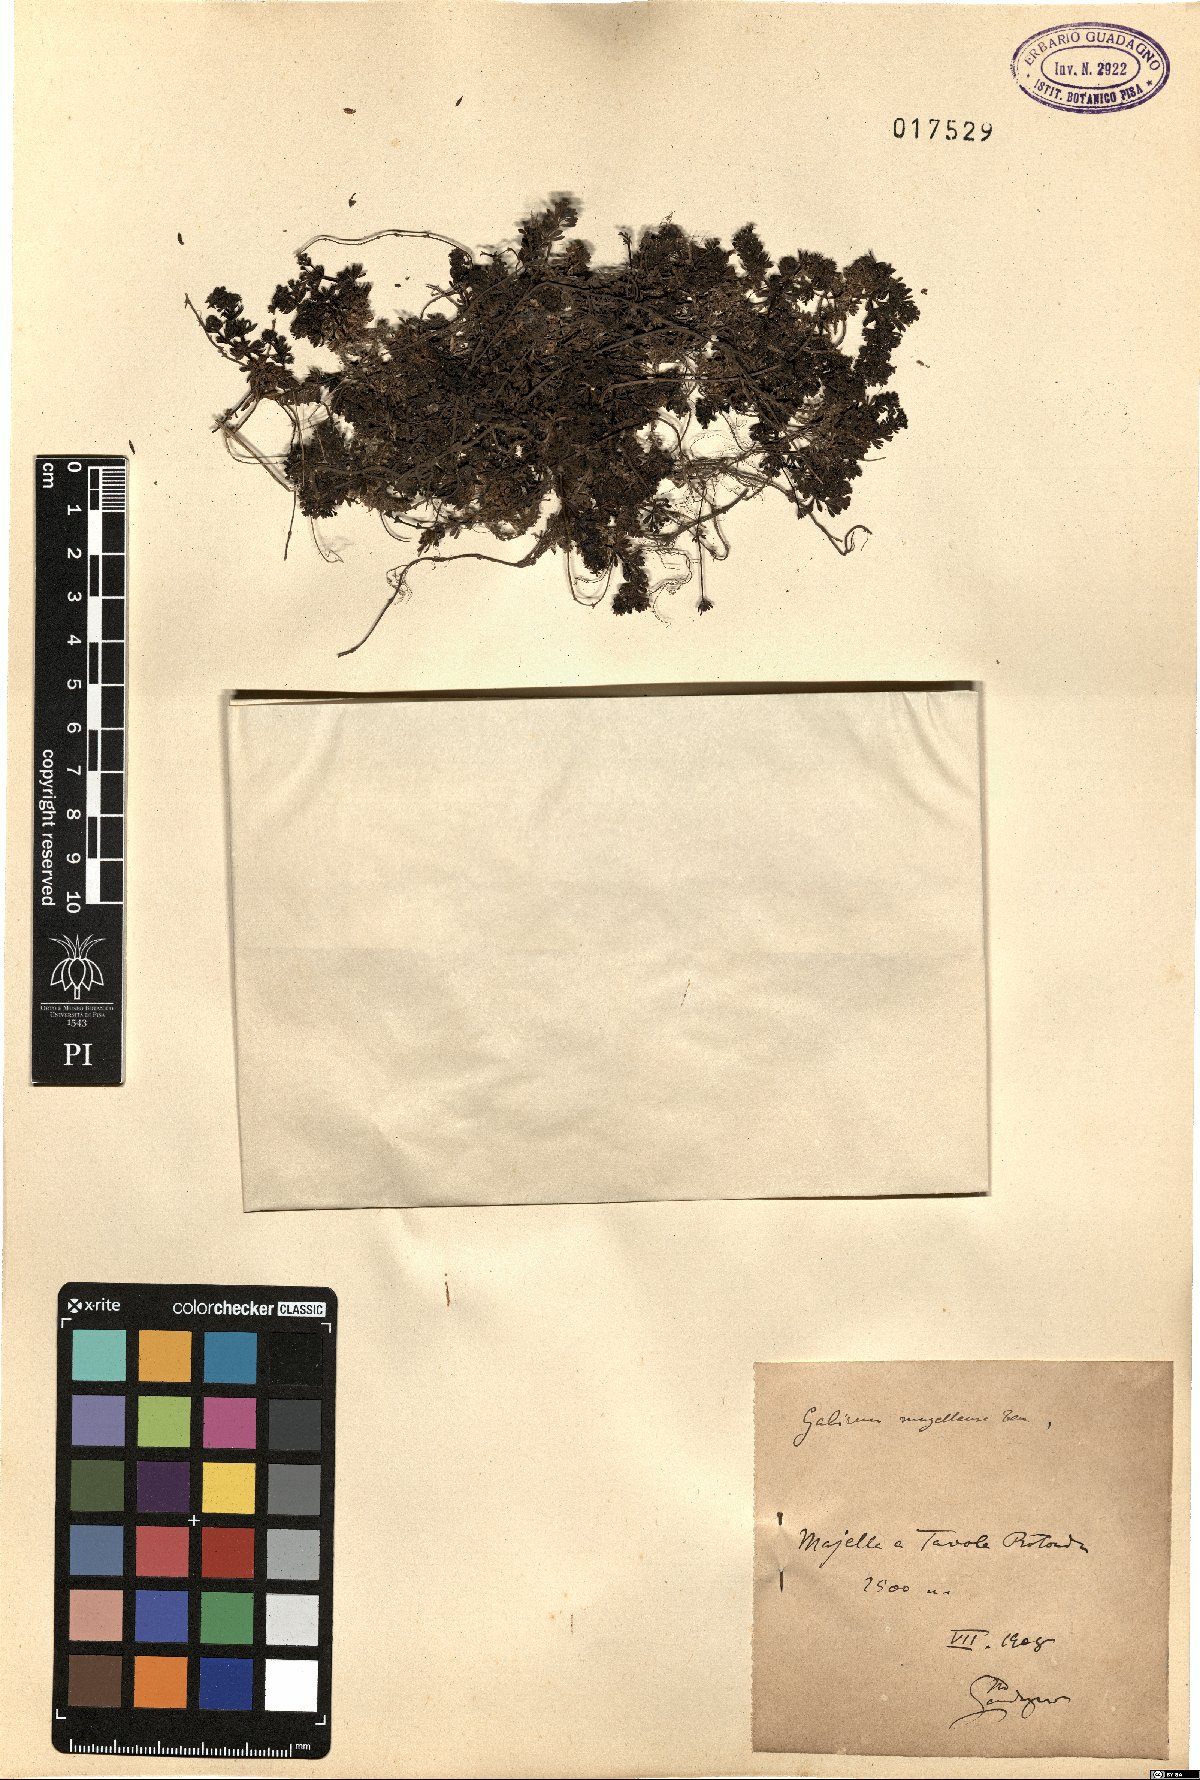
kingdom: Plantae
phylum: Tracheophyta
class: Magnoliopsida
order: Gentianales
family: Rubiaceae
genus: Galium
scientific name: Galium magellense
